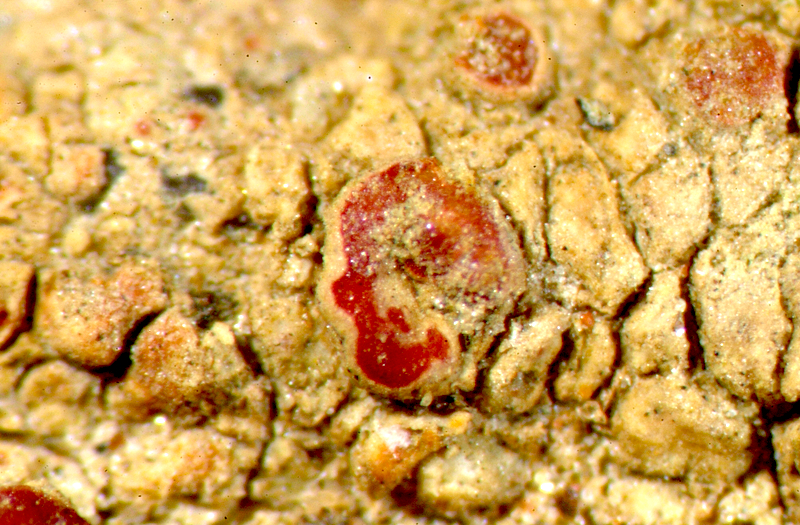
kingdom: Fungi
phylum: Ascomycota
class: Lecanoromycetes
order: Lecanorales
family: Parmeliaceae
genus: Lichen
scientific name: Lichen
